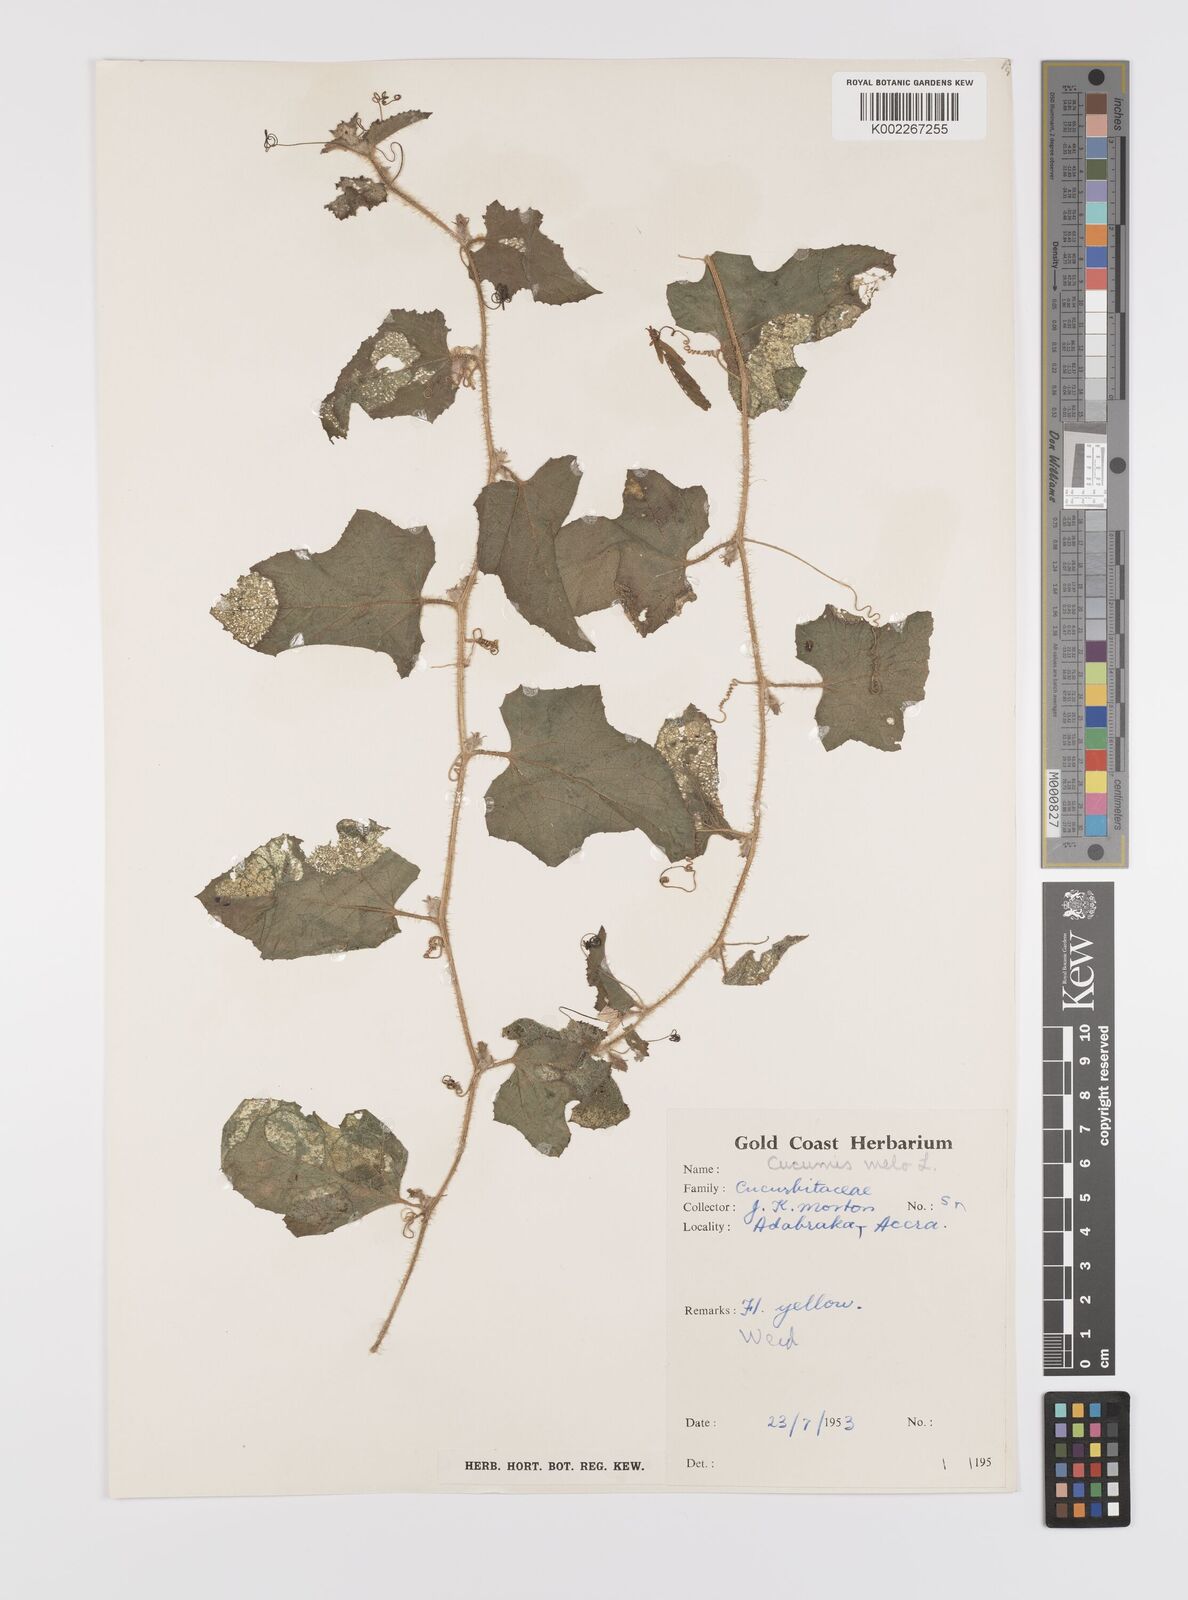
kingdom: Plantae
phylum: Tracheophyta
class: Magnoliopsida
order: Cucurbitales
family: Cucurbitaceae
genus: Cucumis
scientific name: Cucumis melo
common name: Melon
